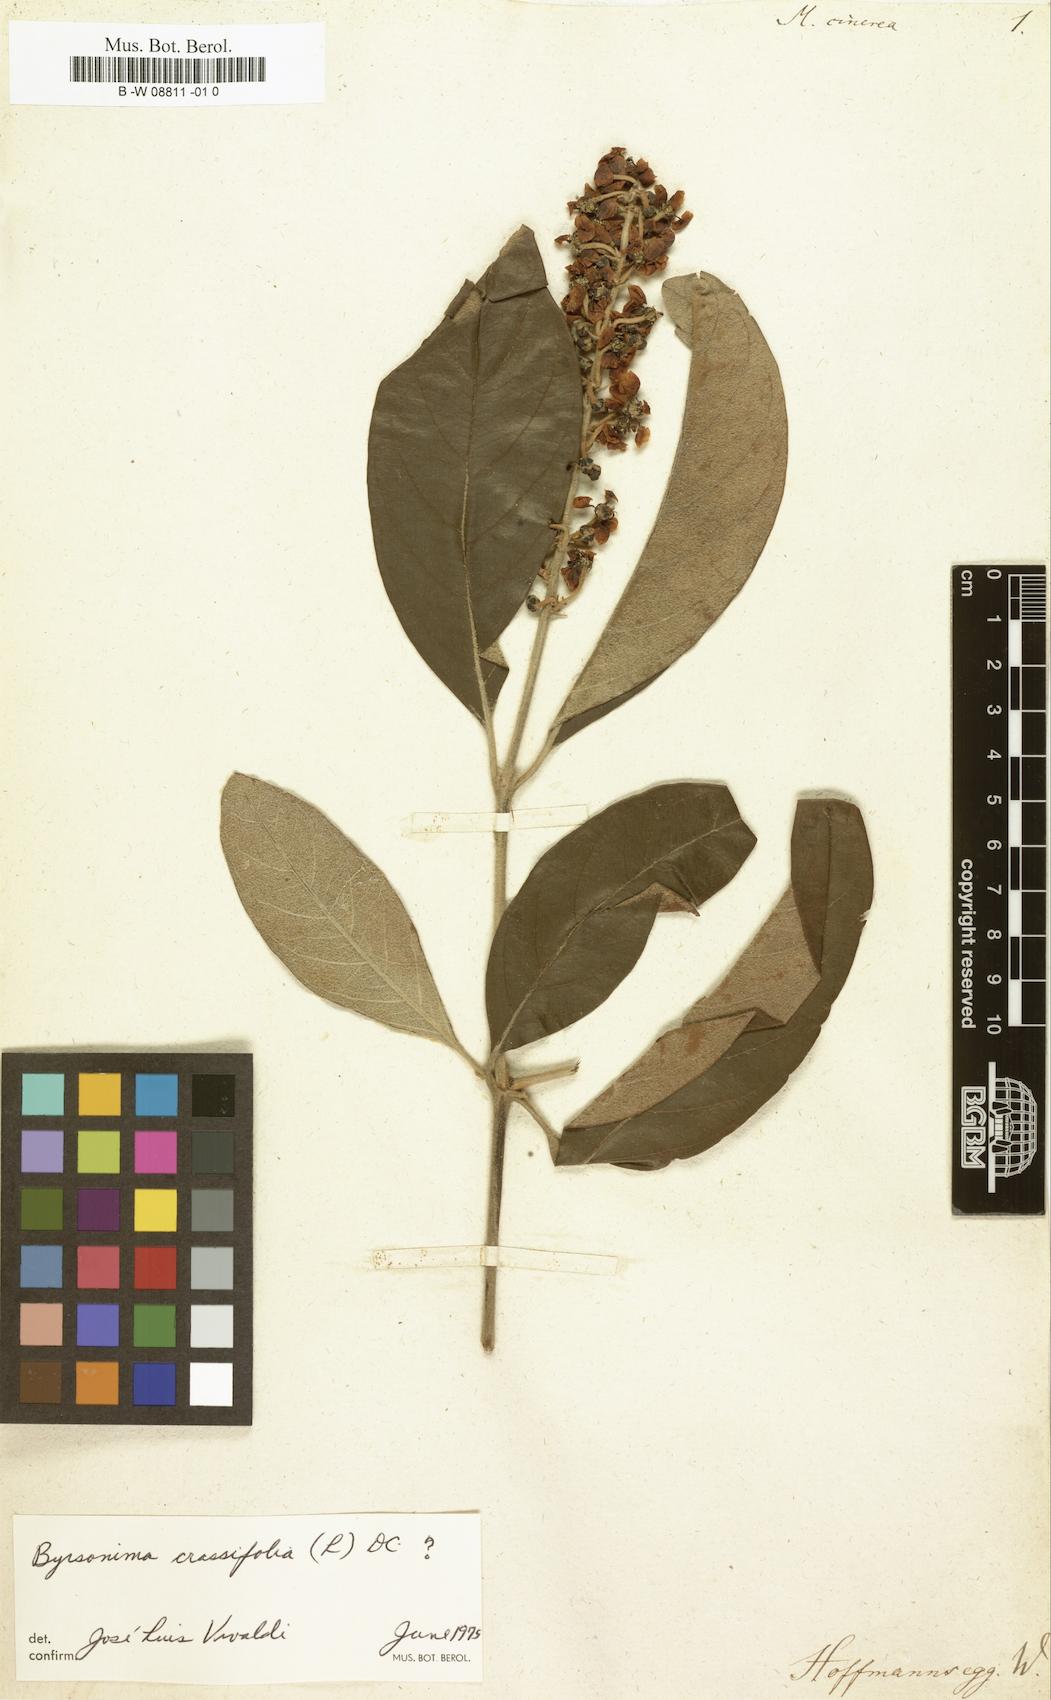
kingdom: Plantae
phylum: Tracheophyta
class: Magnoliopsida
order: Malpighiales
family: Malpighiaceae
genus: Byrsonima
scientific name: Byrsonima crassifolia
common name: Golden spoon
